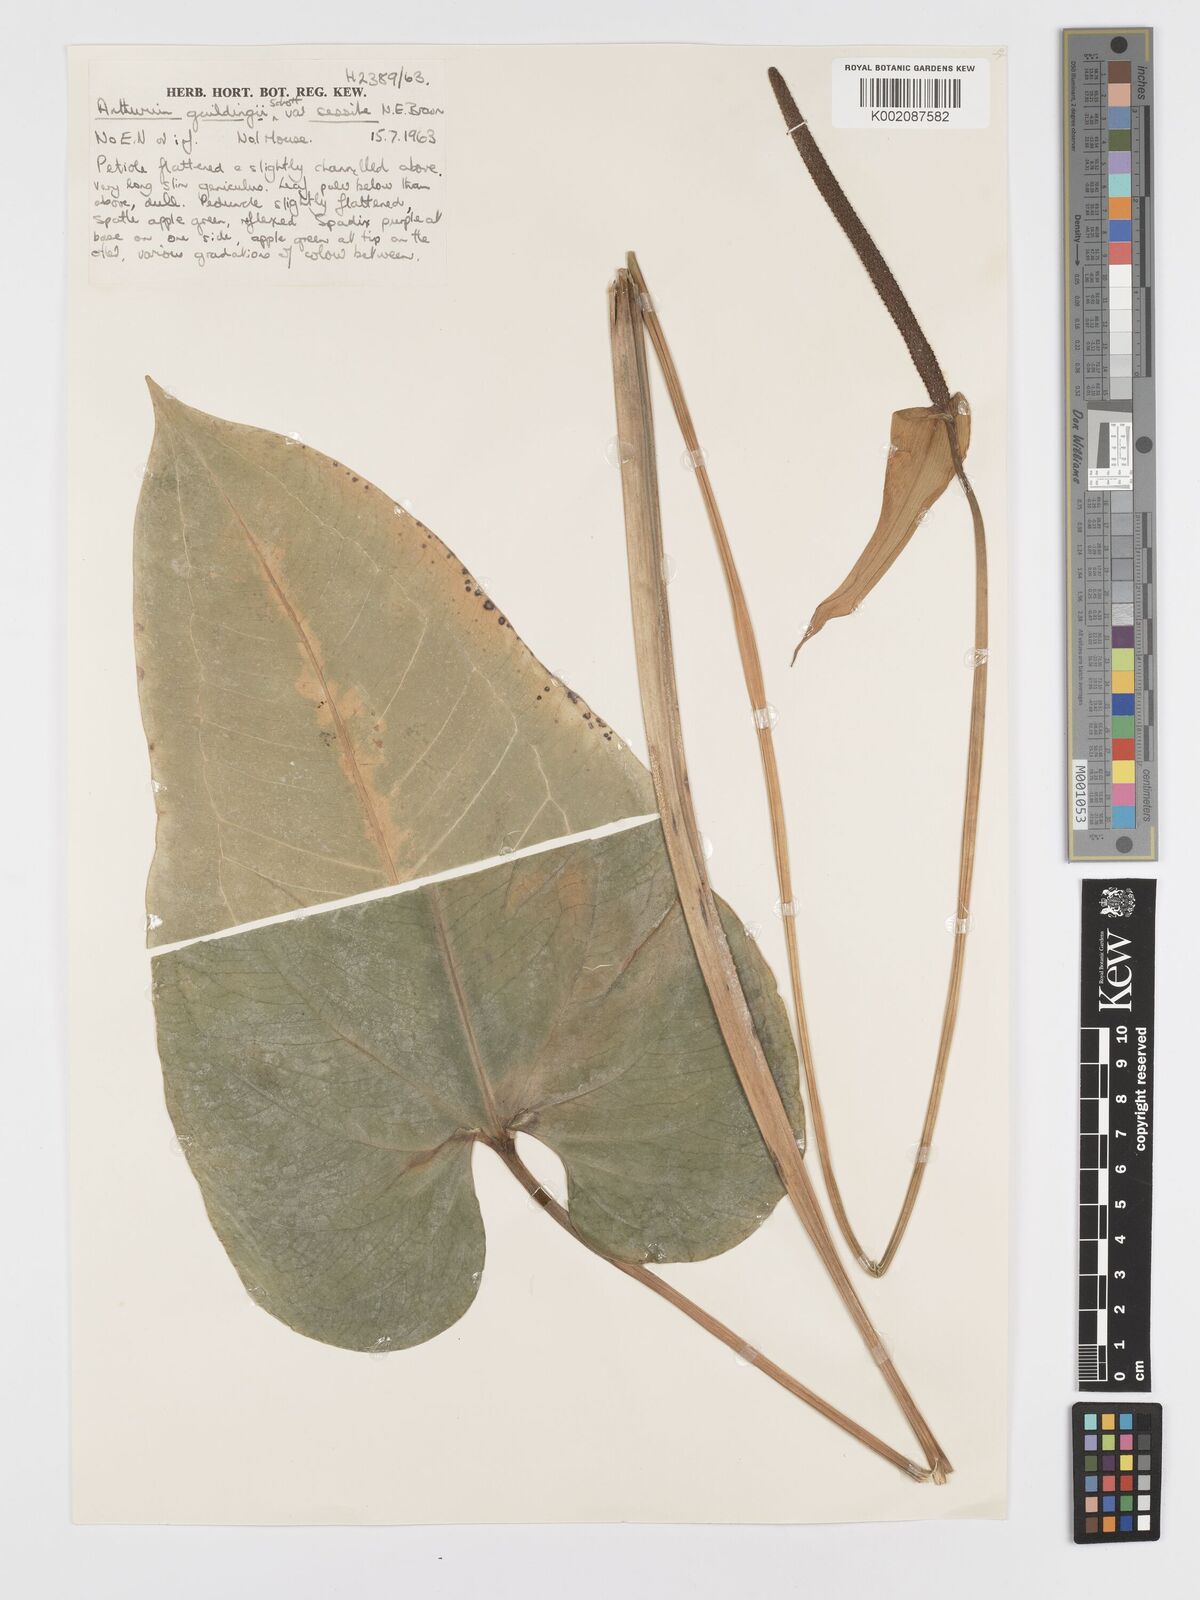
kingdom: Plantae
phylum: Tracheophyta
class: Liliopsida
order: Alismatales
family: Araceae
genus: Anthurium
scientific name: Anthurium cordatum
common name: Monkey tail
